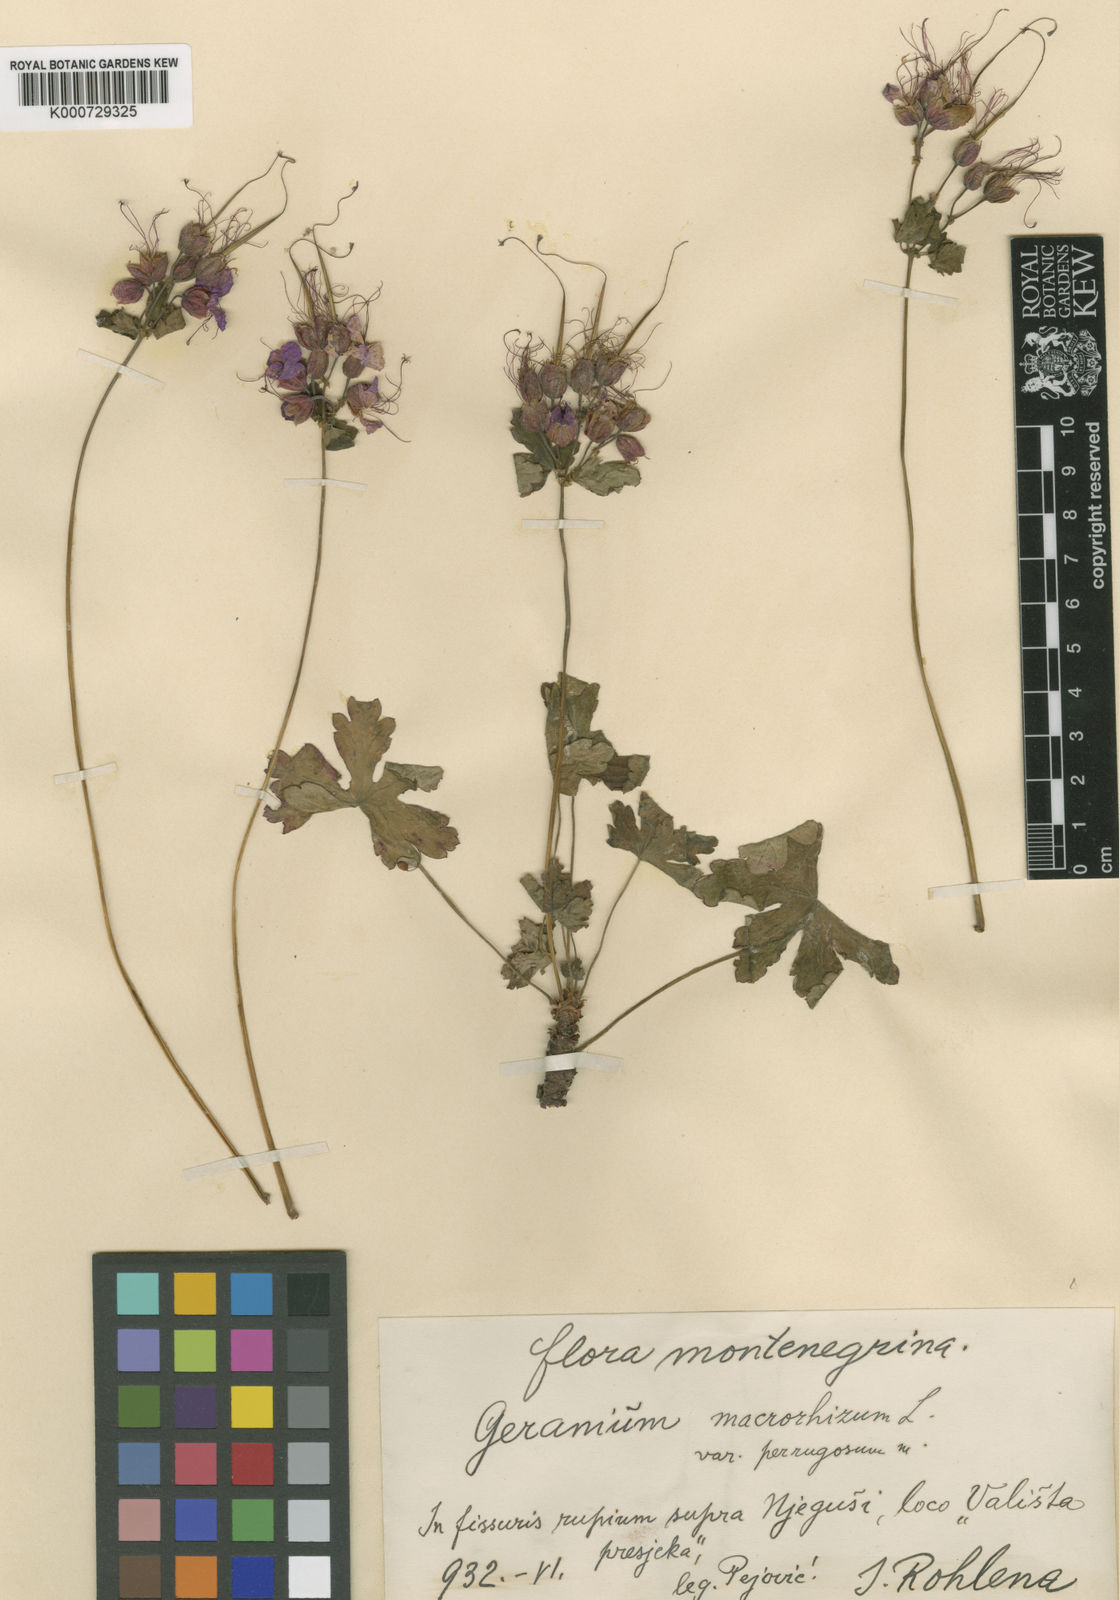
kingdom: Plantae
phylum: Tracheophyta
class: Magnoliopsida
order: Geraniales
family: Geraniaceae
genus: Geranium
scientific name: Geranium macrorrhizum
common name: Rock crane's-bill
